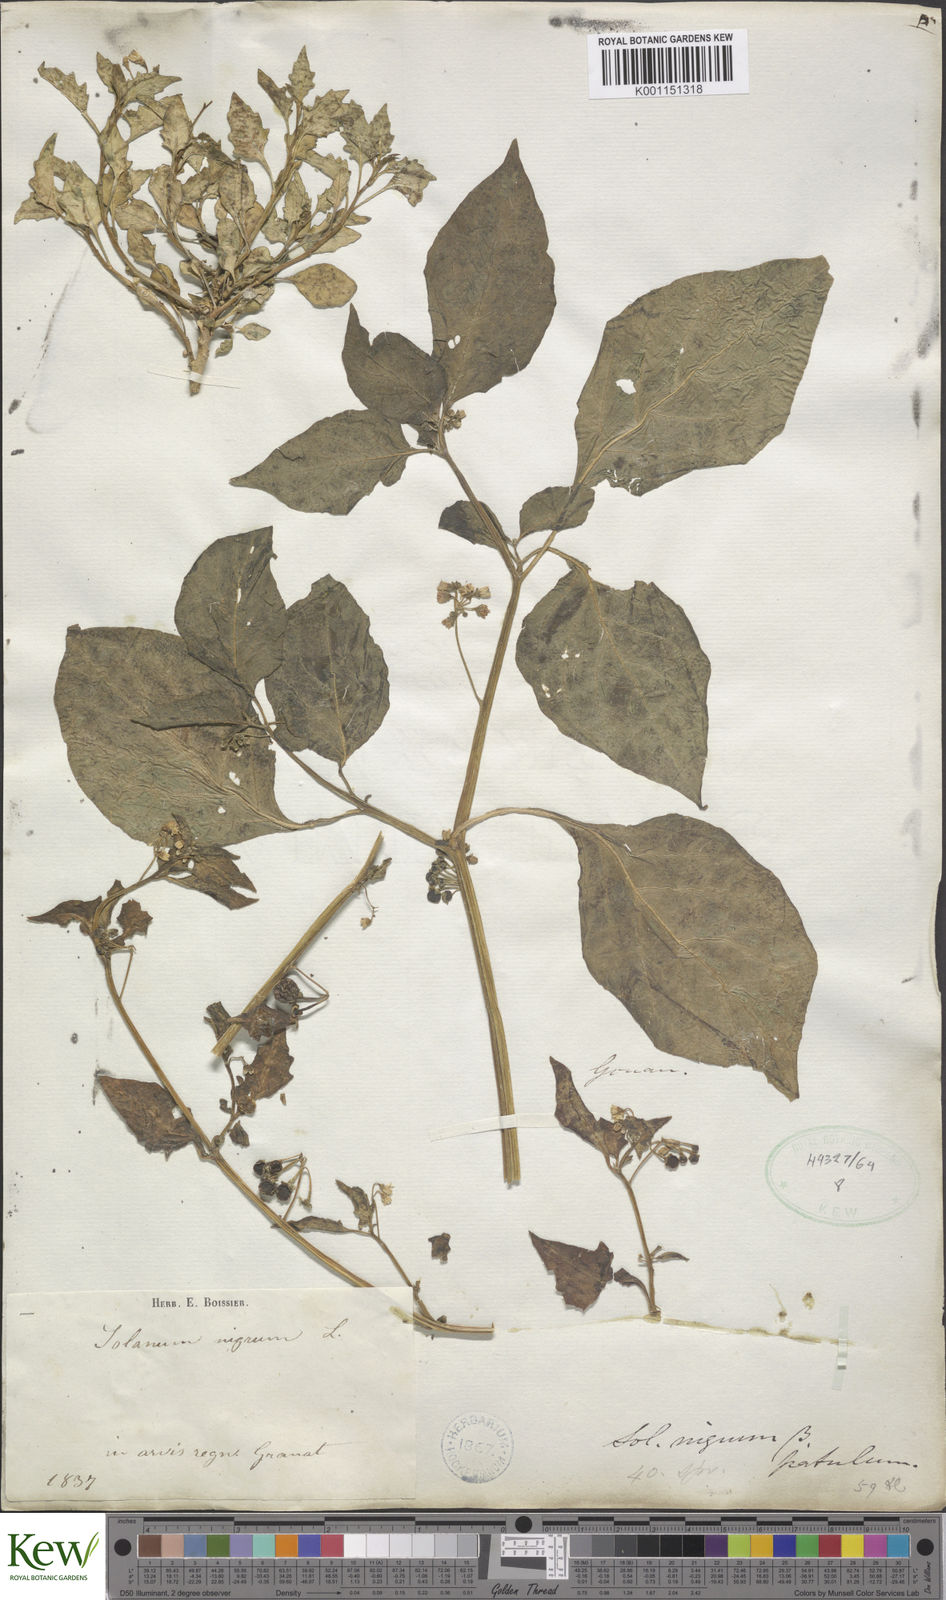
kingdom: Plantae
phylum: Tracheophyta
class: Magnoliopsida
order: Solanales
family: Solanaceae
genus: Solanum
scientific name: Solanum nigrum
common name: Black nightshade
